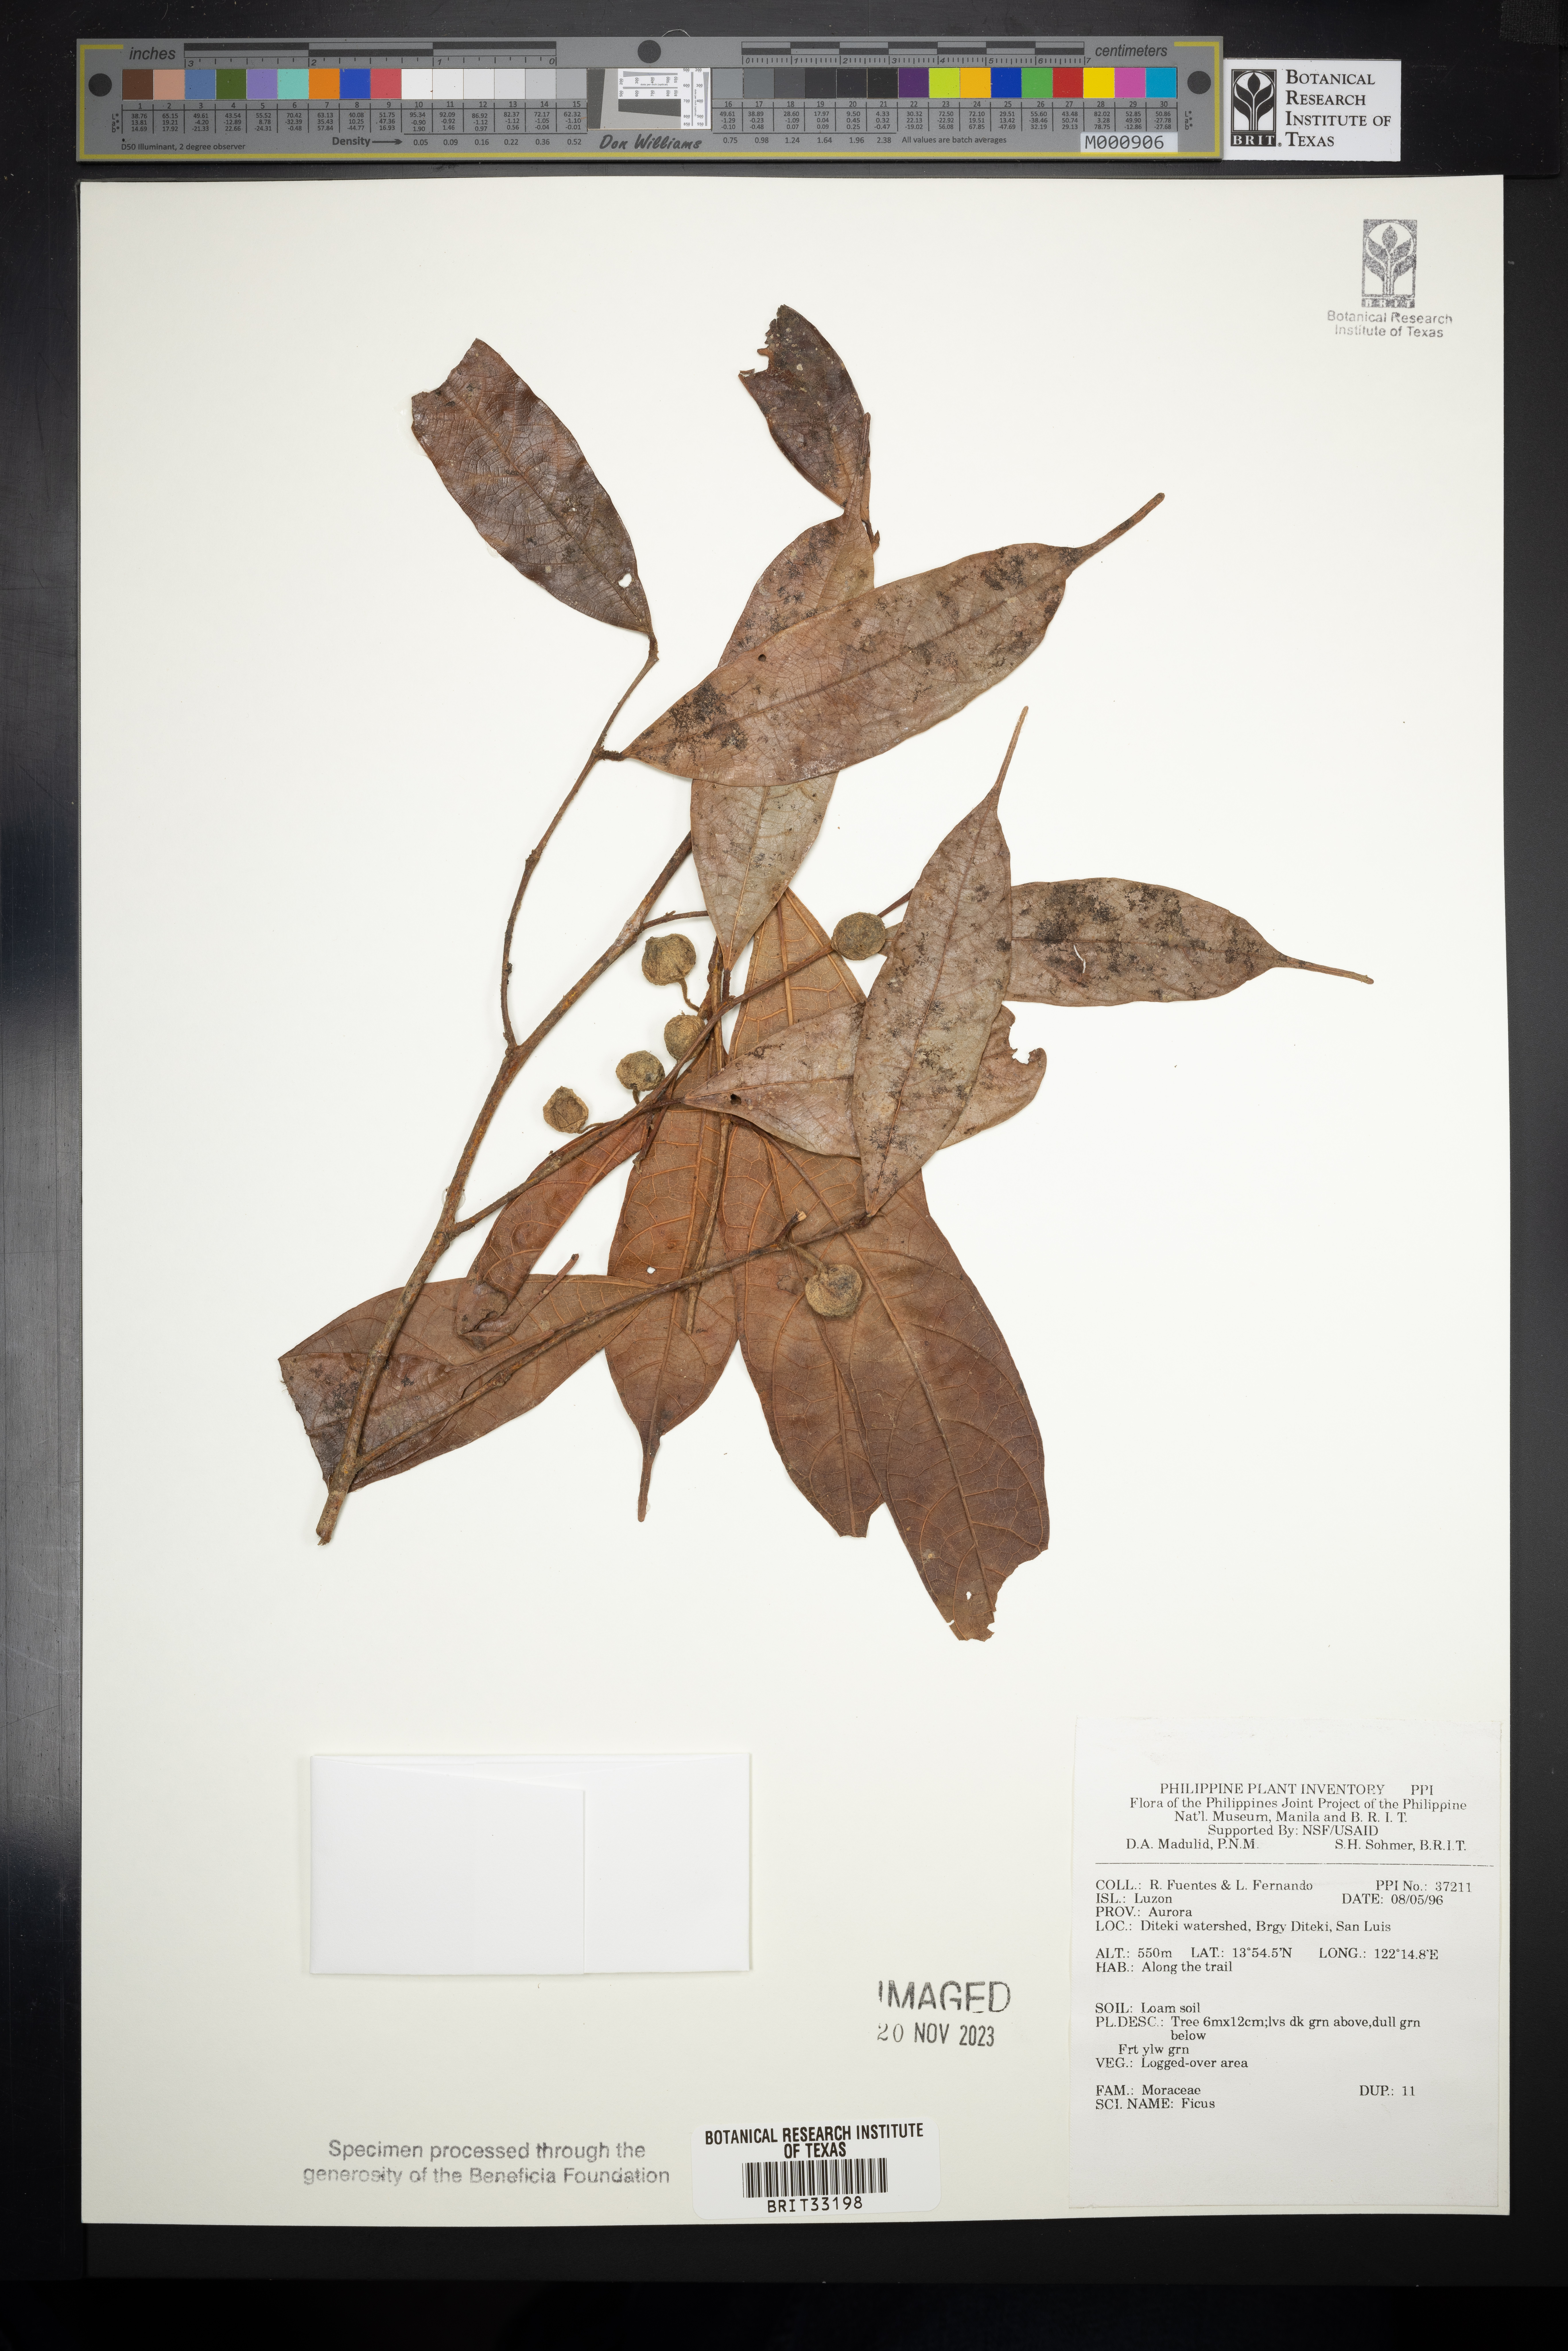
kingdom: Plantae
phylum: Tracheophyta
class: Magnoliopsida
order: Rosales
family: Moraceae
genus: Ficus
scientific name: Ficus
